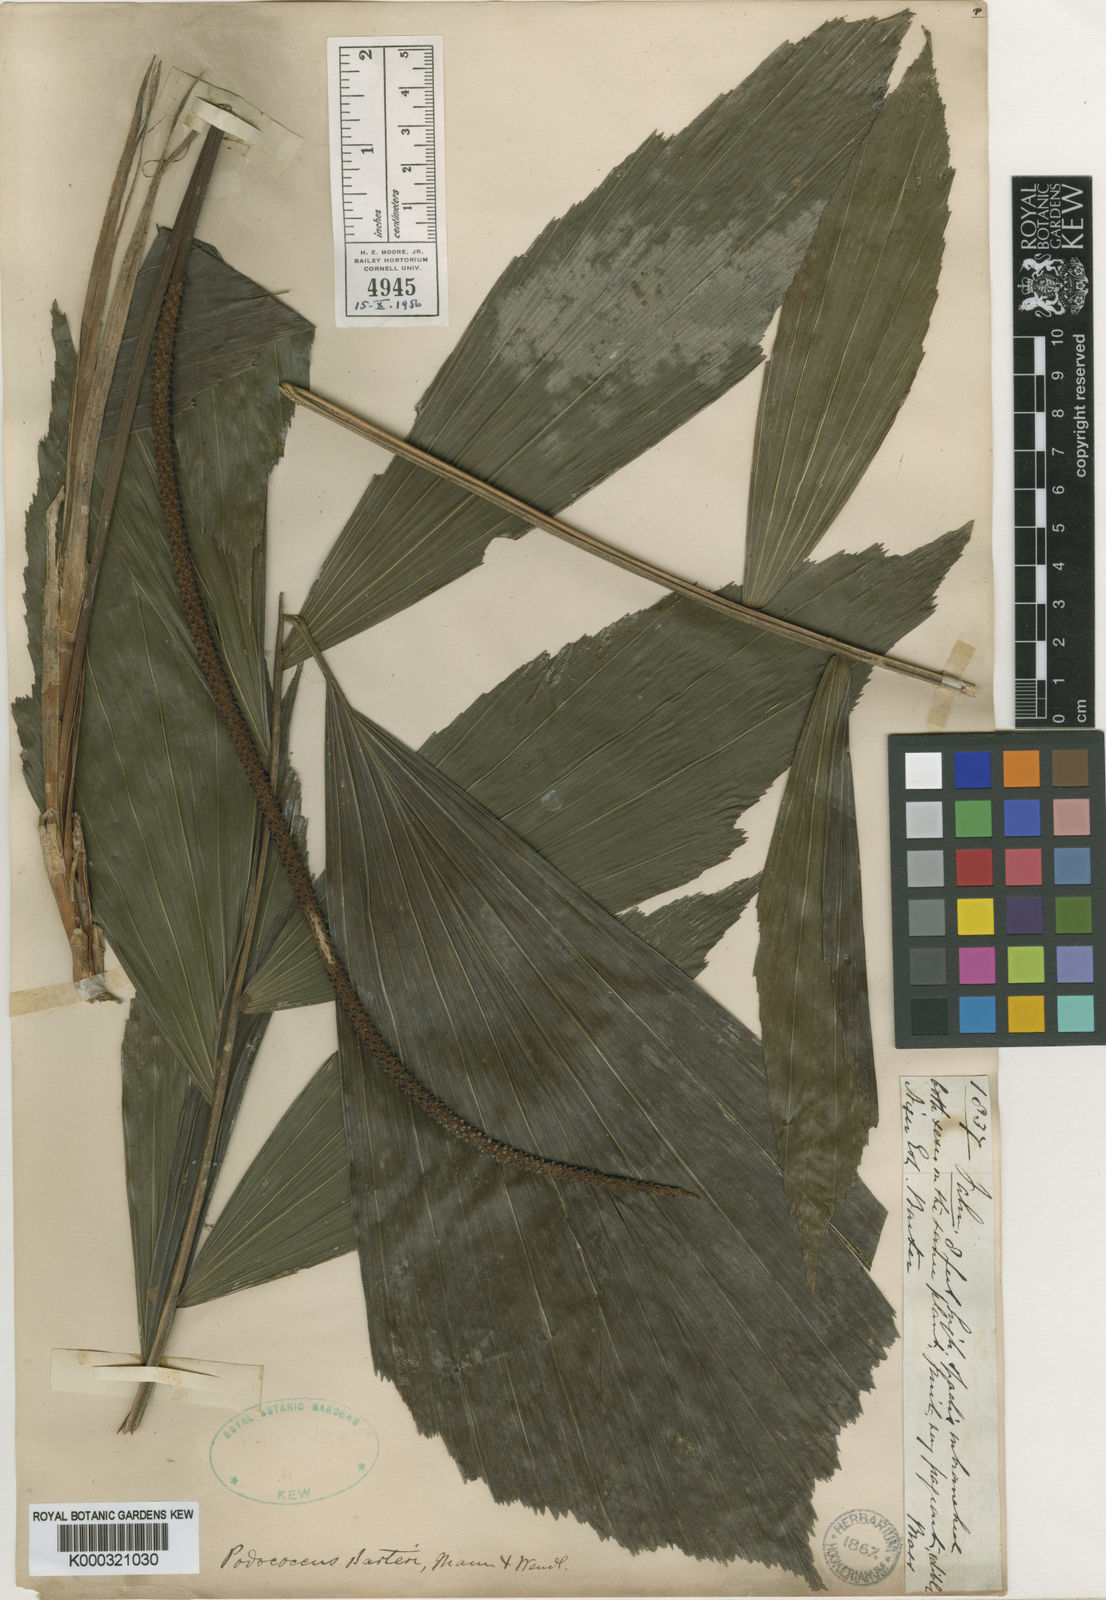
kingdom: Plantae
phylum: Tracheophyta
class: Liliopsida
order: Arecales
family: Arecaceae
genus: Podococcus
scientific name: Podococcus barteri
